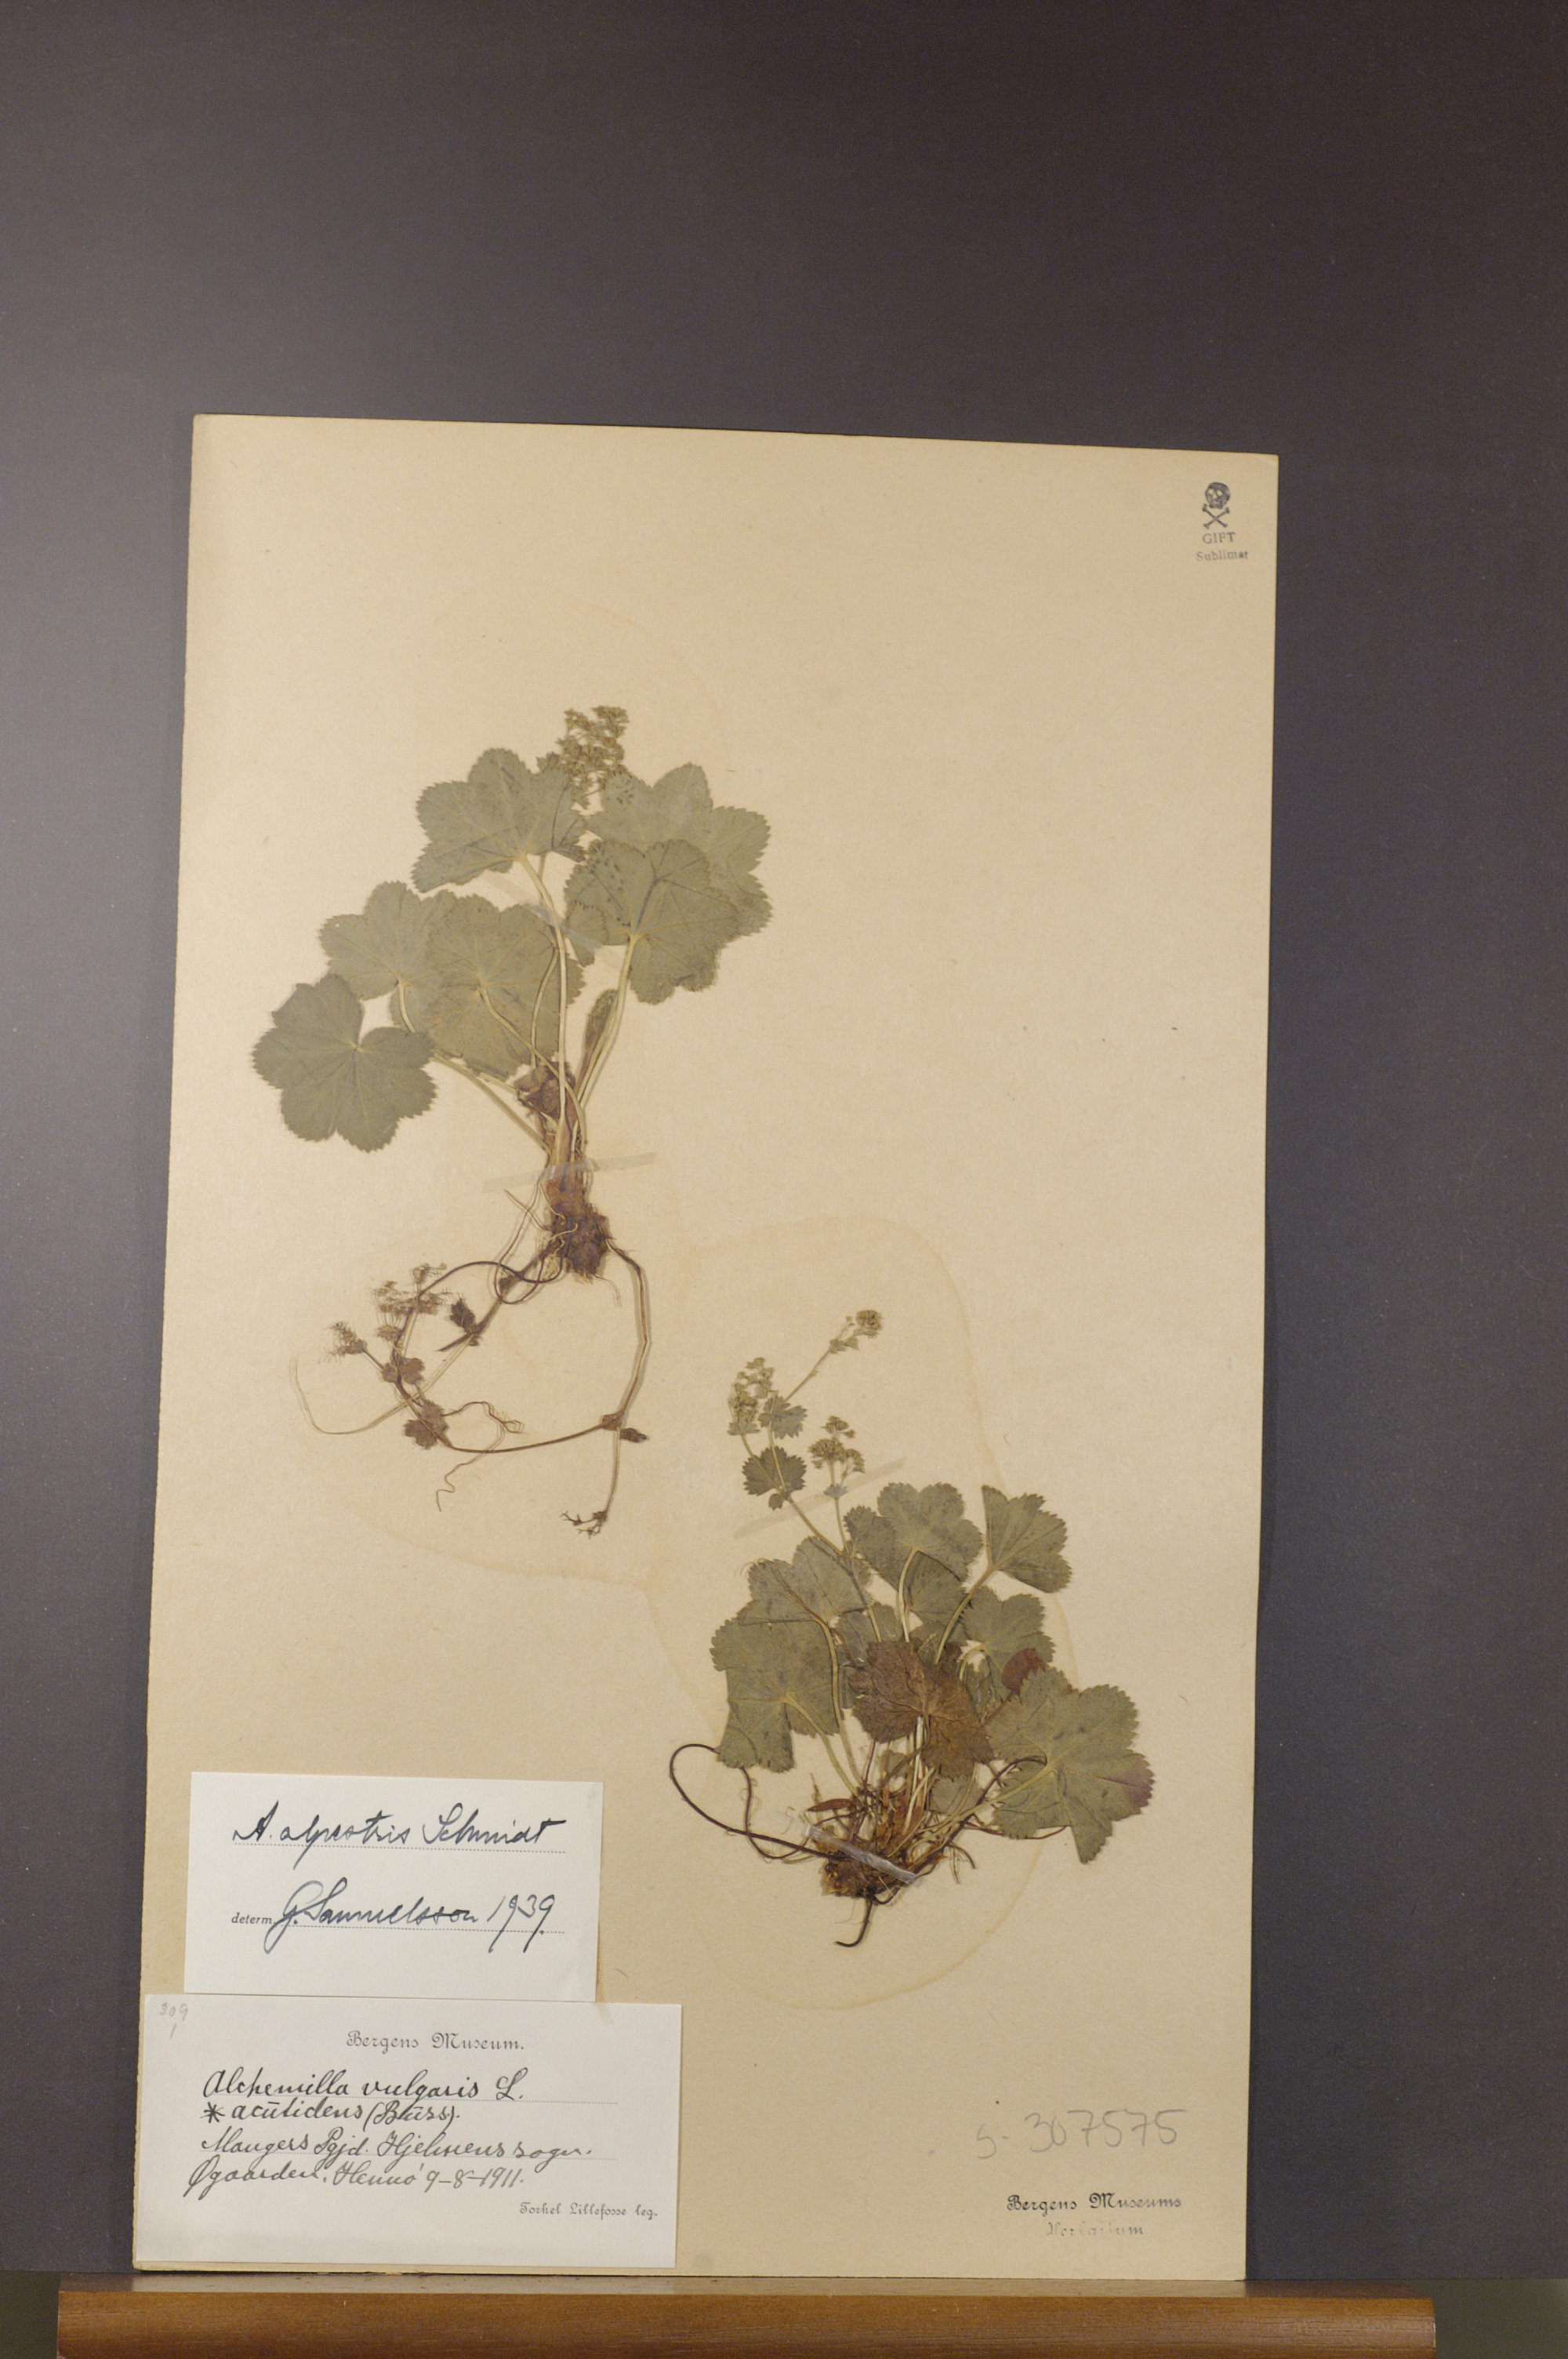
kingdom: Plantae
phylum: Tracheophyta
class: Magnoliopsida
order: Rosales
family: Rosaceae
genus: Alchemilla
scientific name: Alchemilla glabra
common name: Smooth lady's-mantle
